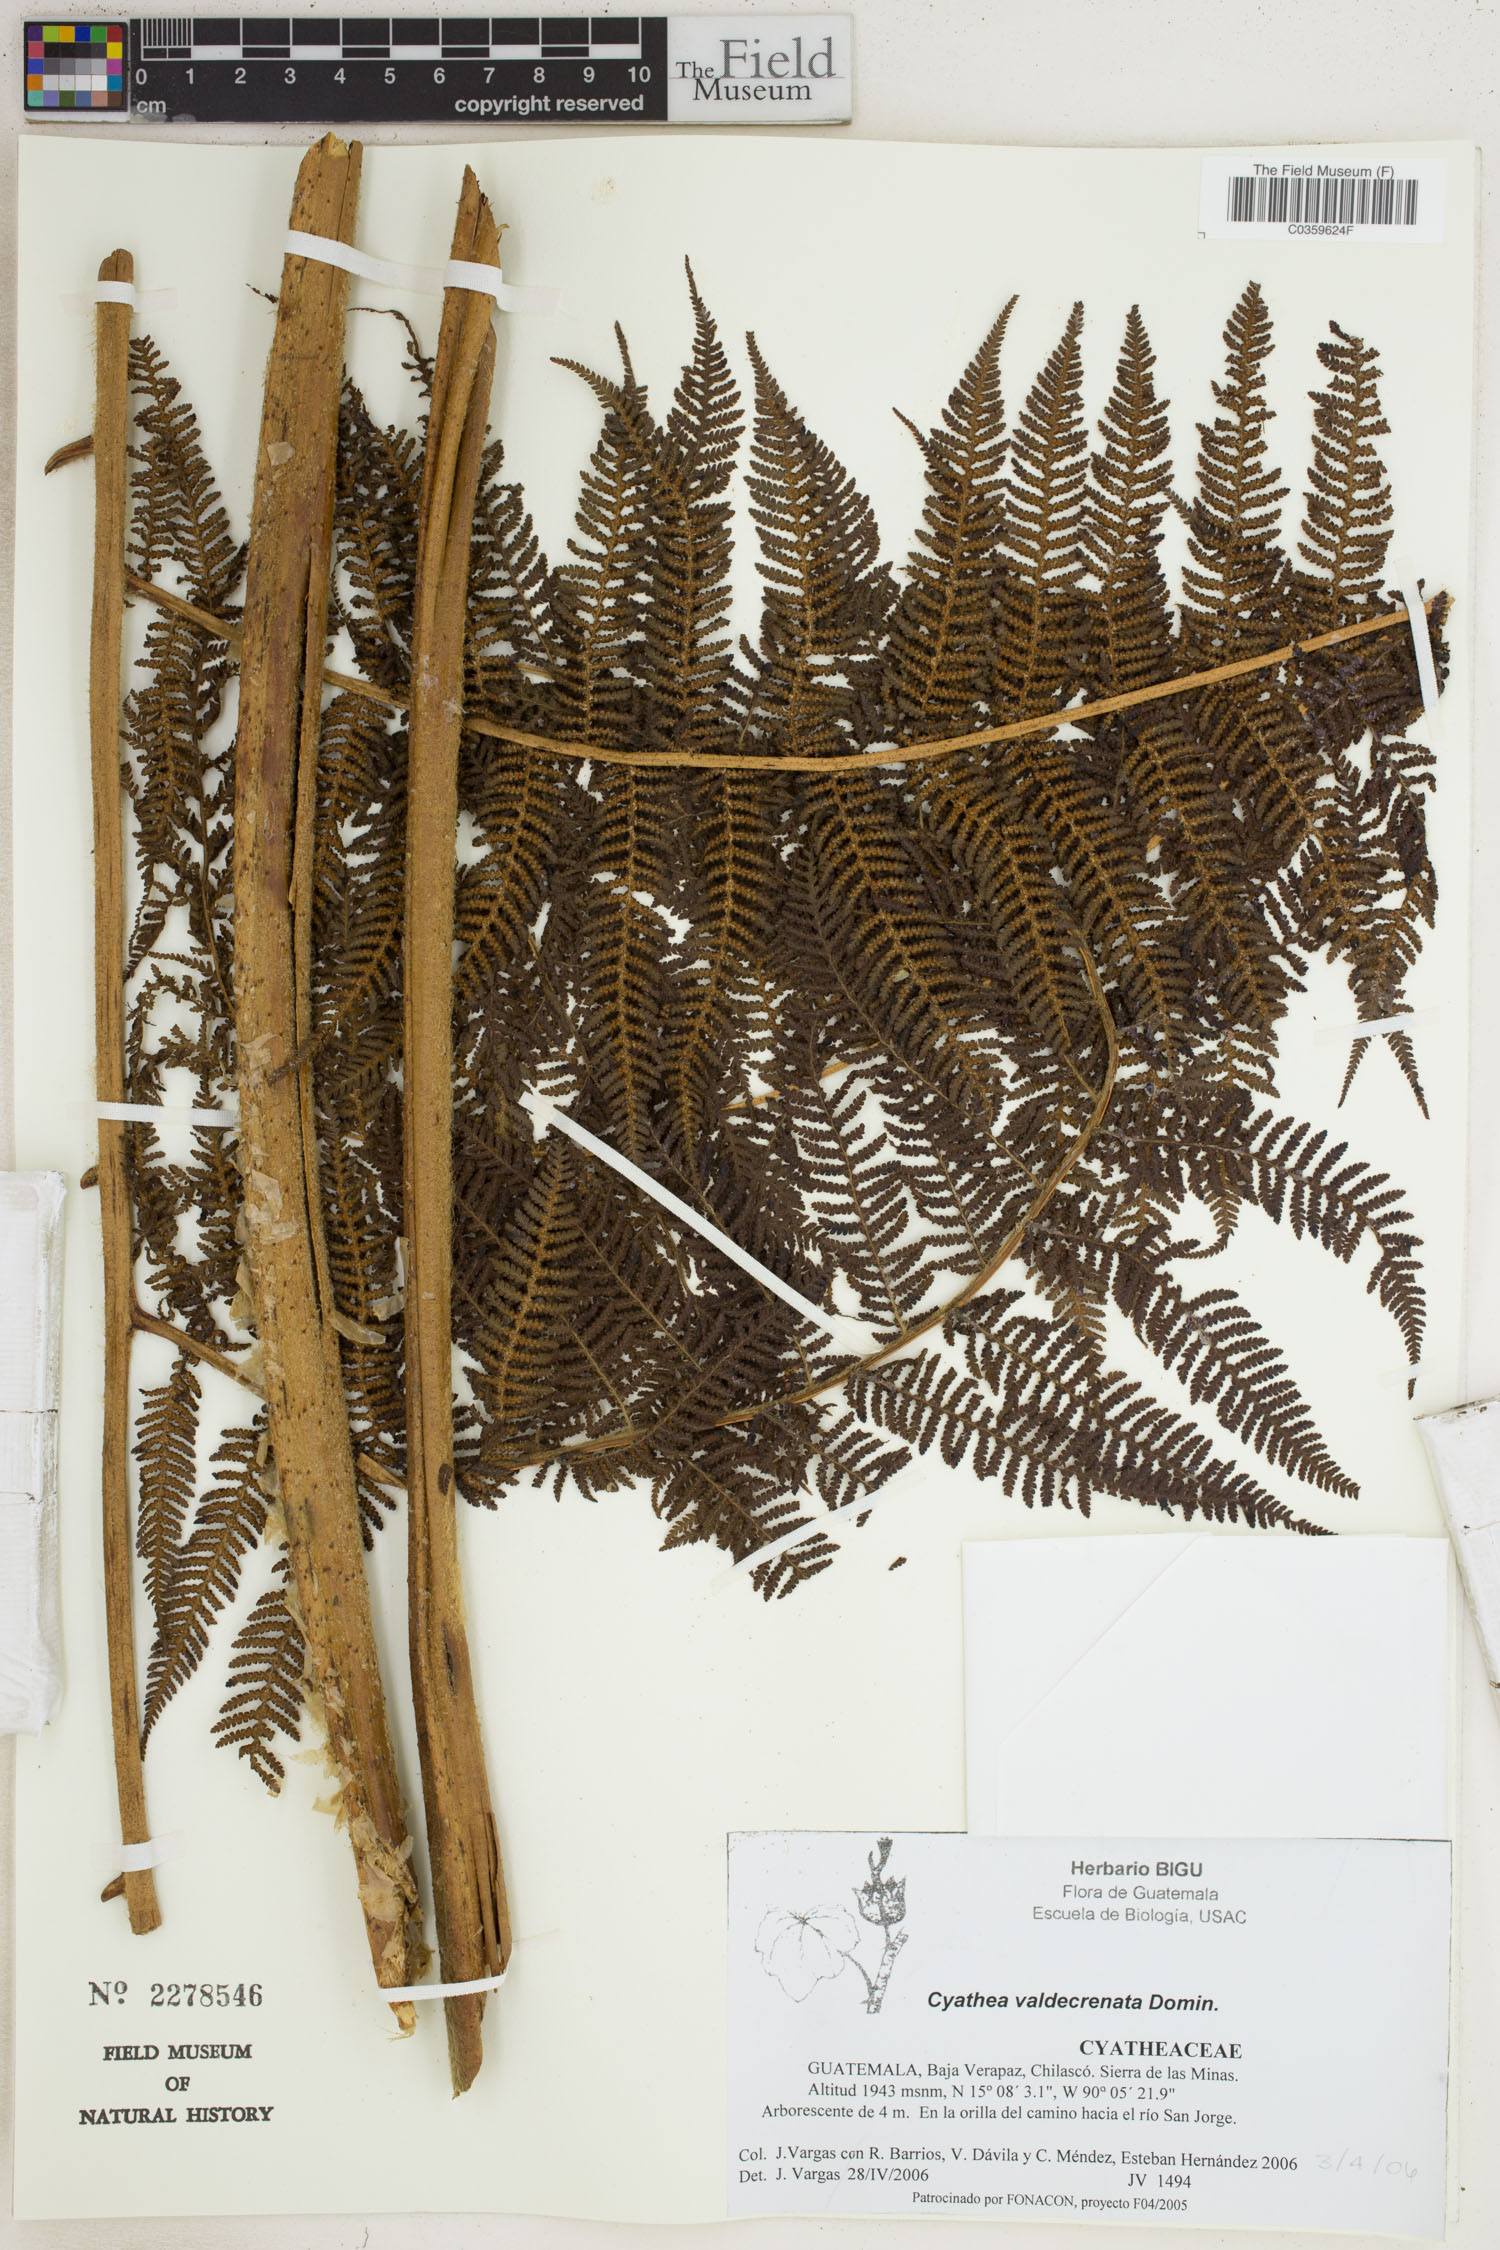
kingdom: Plantae
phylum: Tracheophyta
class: Polypodiopsida
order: Cyatheales
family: Cyatheaceae
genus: Cyathea
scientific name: Cyathea godmanii
